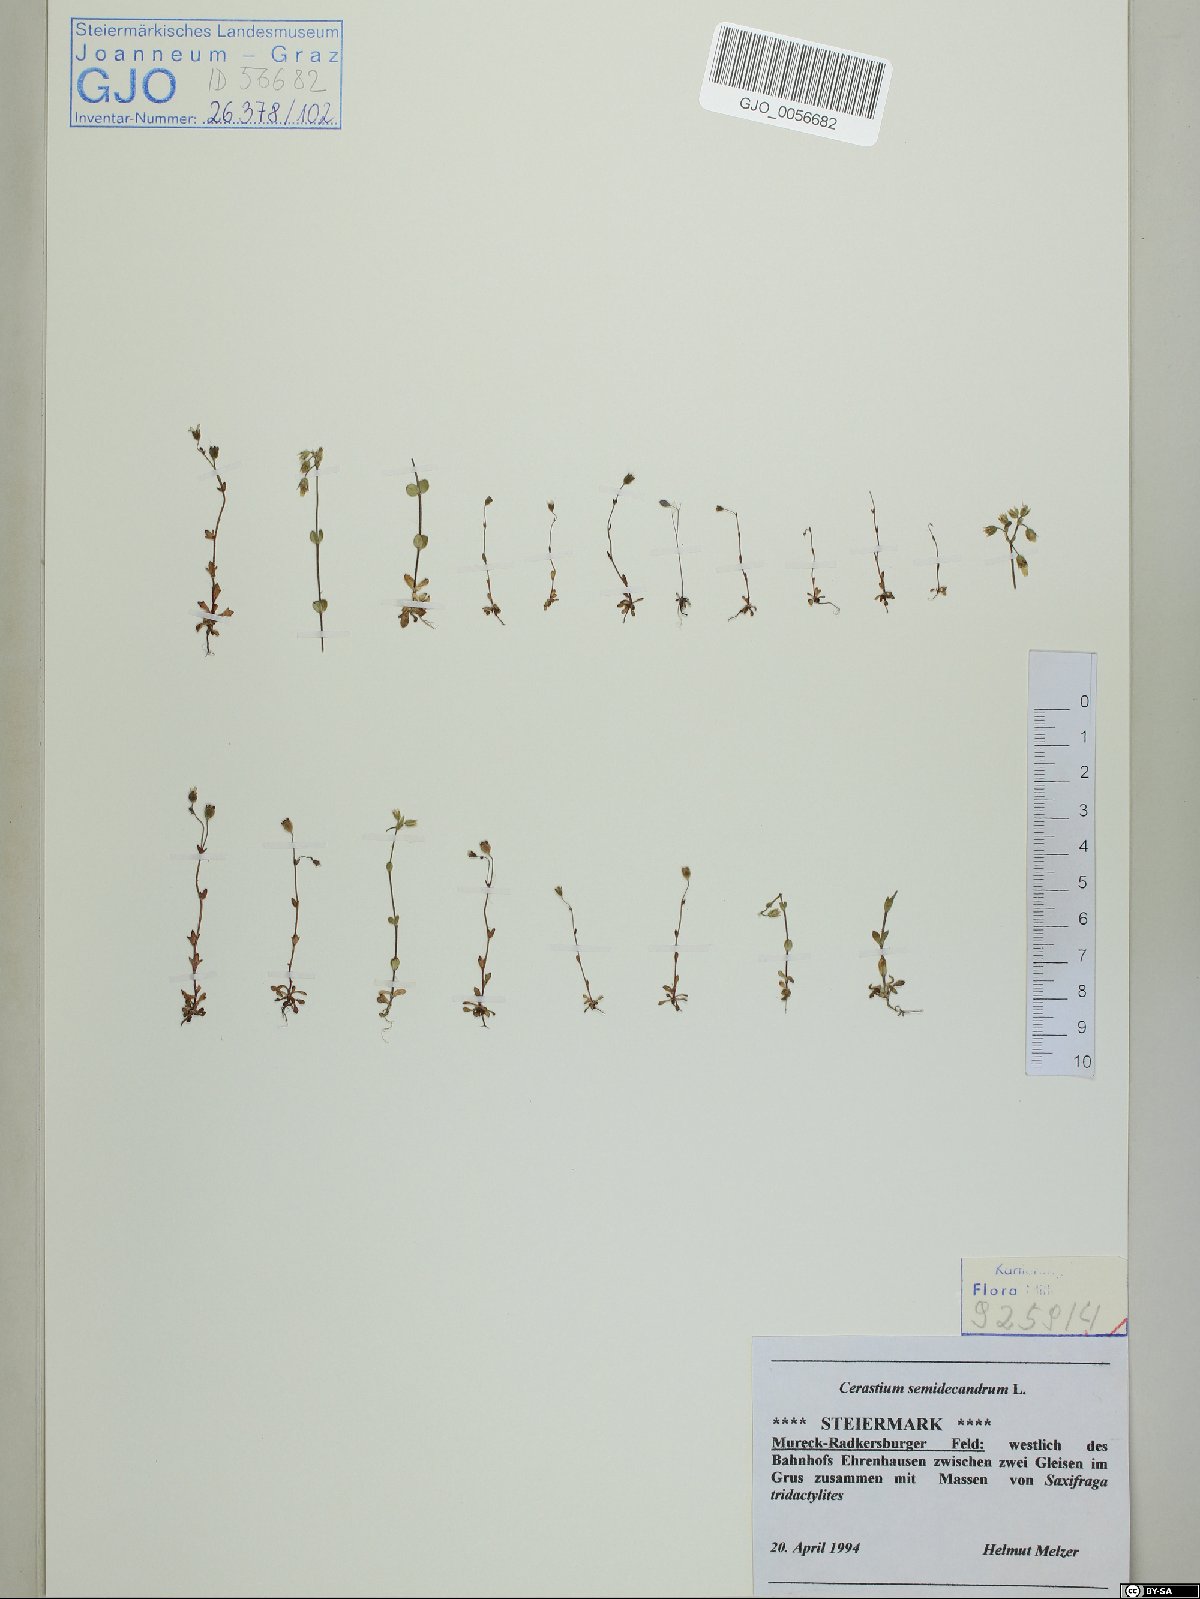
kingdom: Plantae
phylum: Tracheophyta
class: Magnoliopsida
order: Caryophyllales
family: Caryophyllaceae
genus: Cerastium
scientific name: Cerastium semidecandrum
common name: Little mouse-ear
